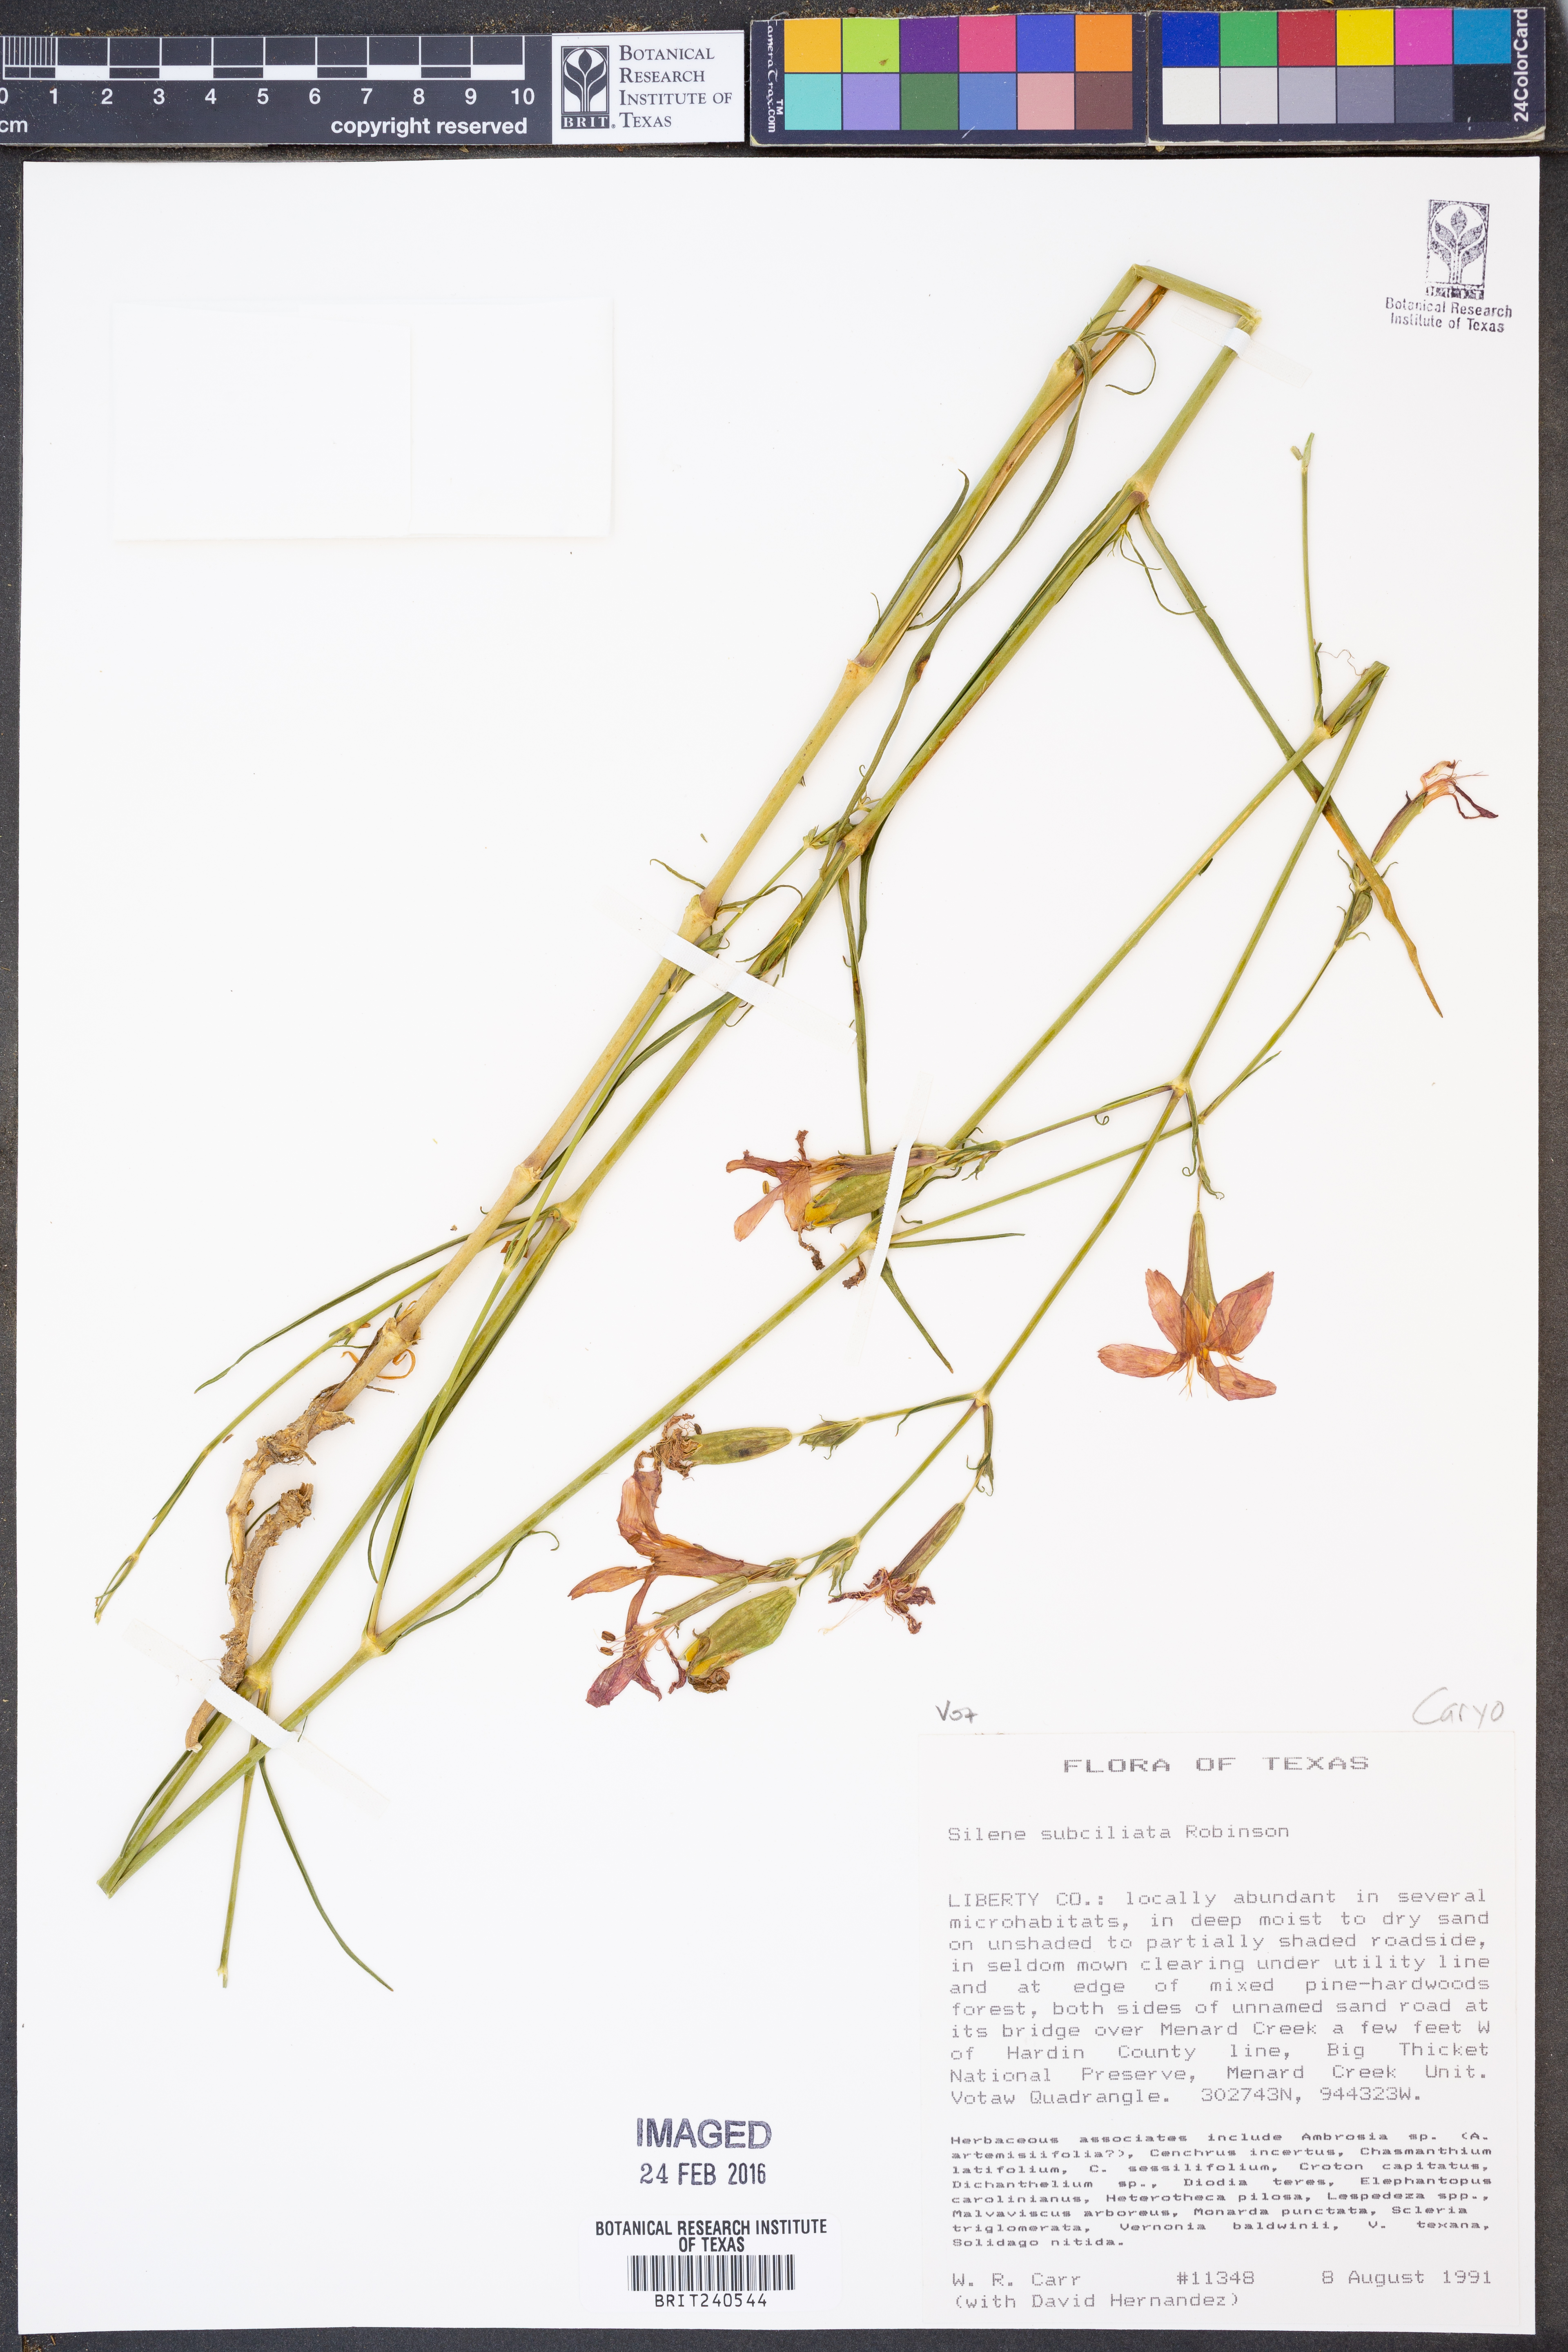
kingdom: Plantae
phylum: Tracheophyta
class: Magnoliopsida
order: Caryophyllales
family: Caryophyllaceae
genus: Silene
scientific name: Silene subciliata
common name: Prairie fire-pink
